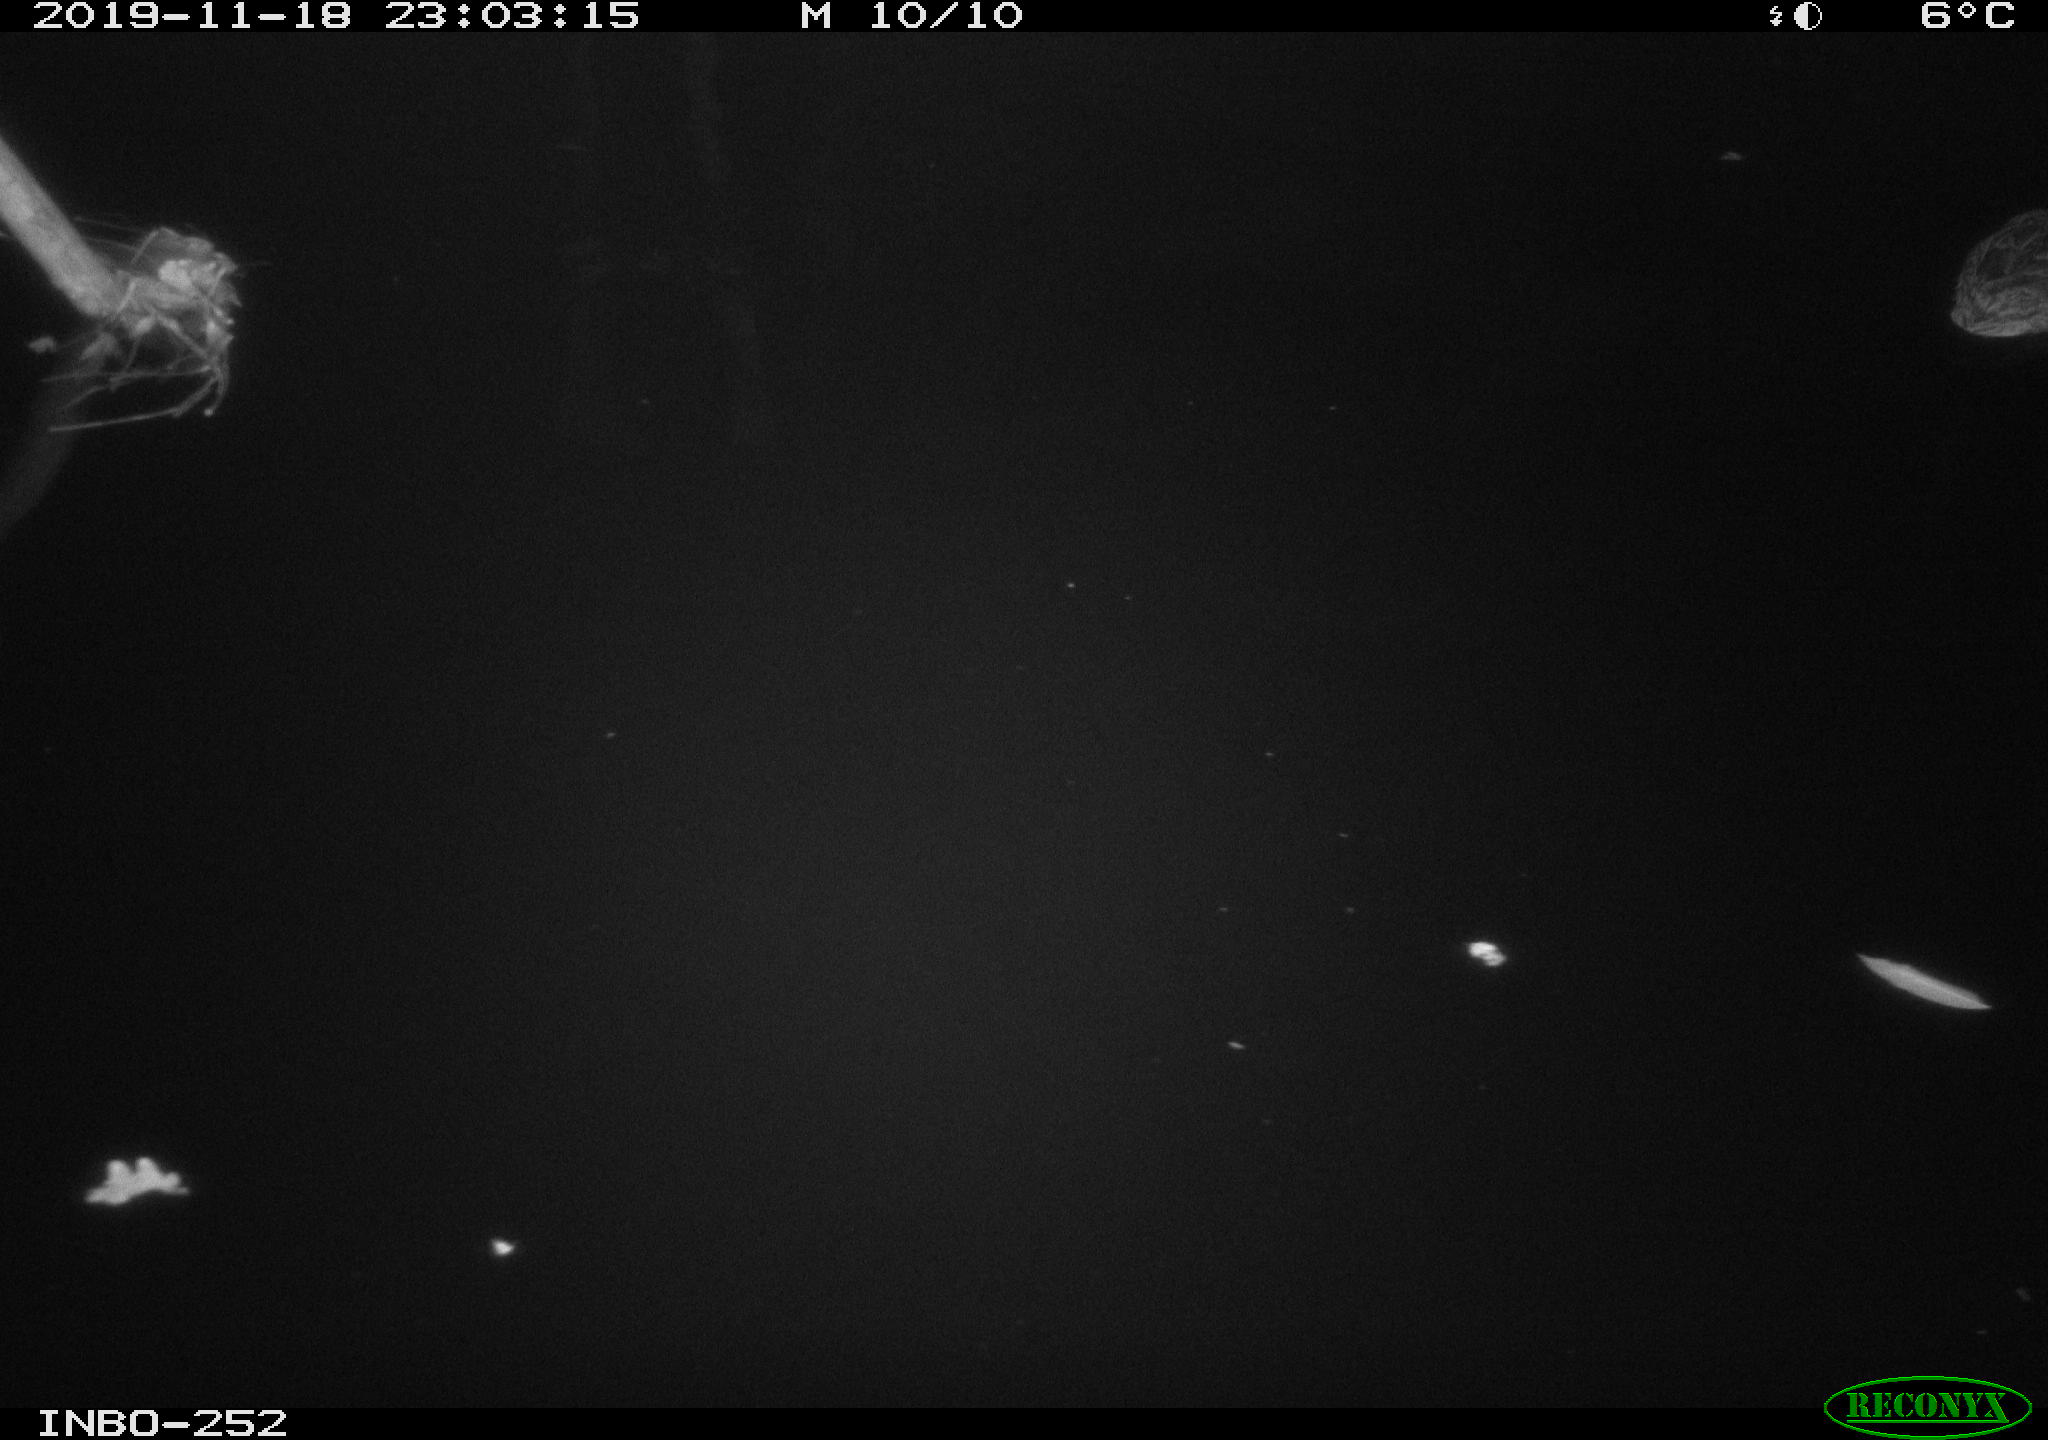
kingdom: Animalia
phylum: Chordata
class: Aves
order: Anseriformes
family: Anatidae
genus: Anas
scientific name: Anas platyrhynchos
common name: Mallard
